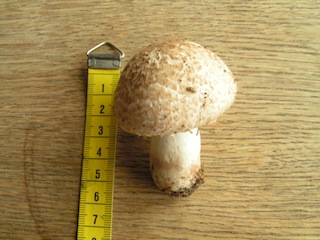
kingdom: Fungi
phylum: Basidiomycota
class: Agaricomycetes
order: Agaricales
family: Agaricaceae
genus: Agaricus
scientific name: Agaricus litoralis
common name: kyst-champignon
